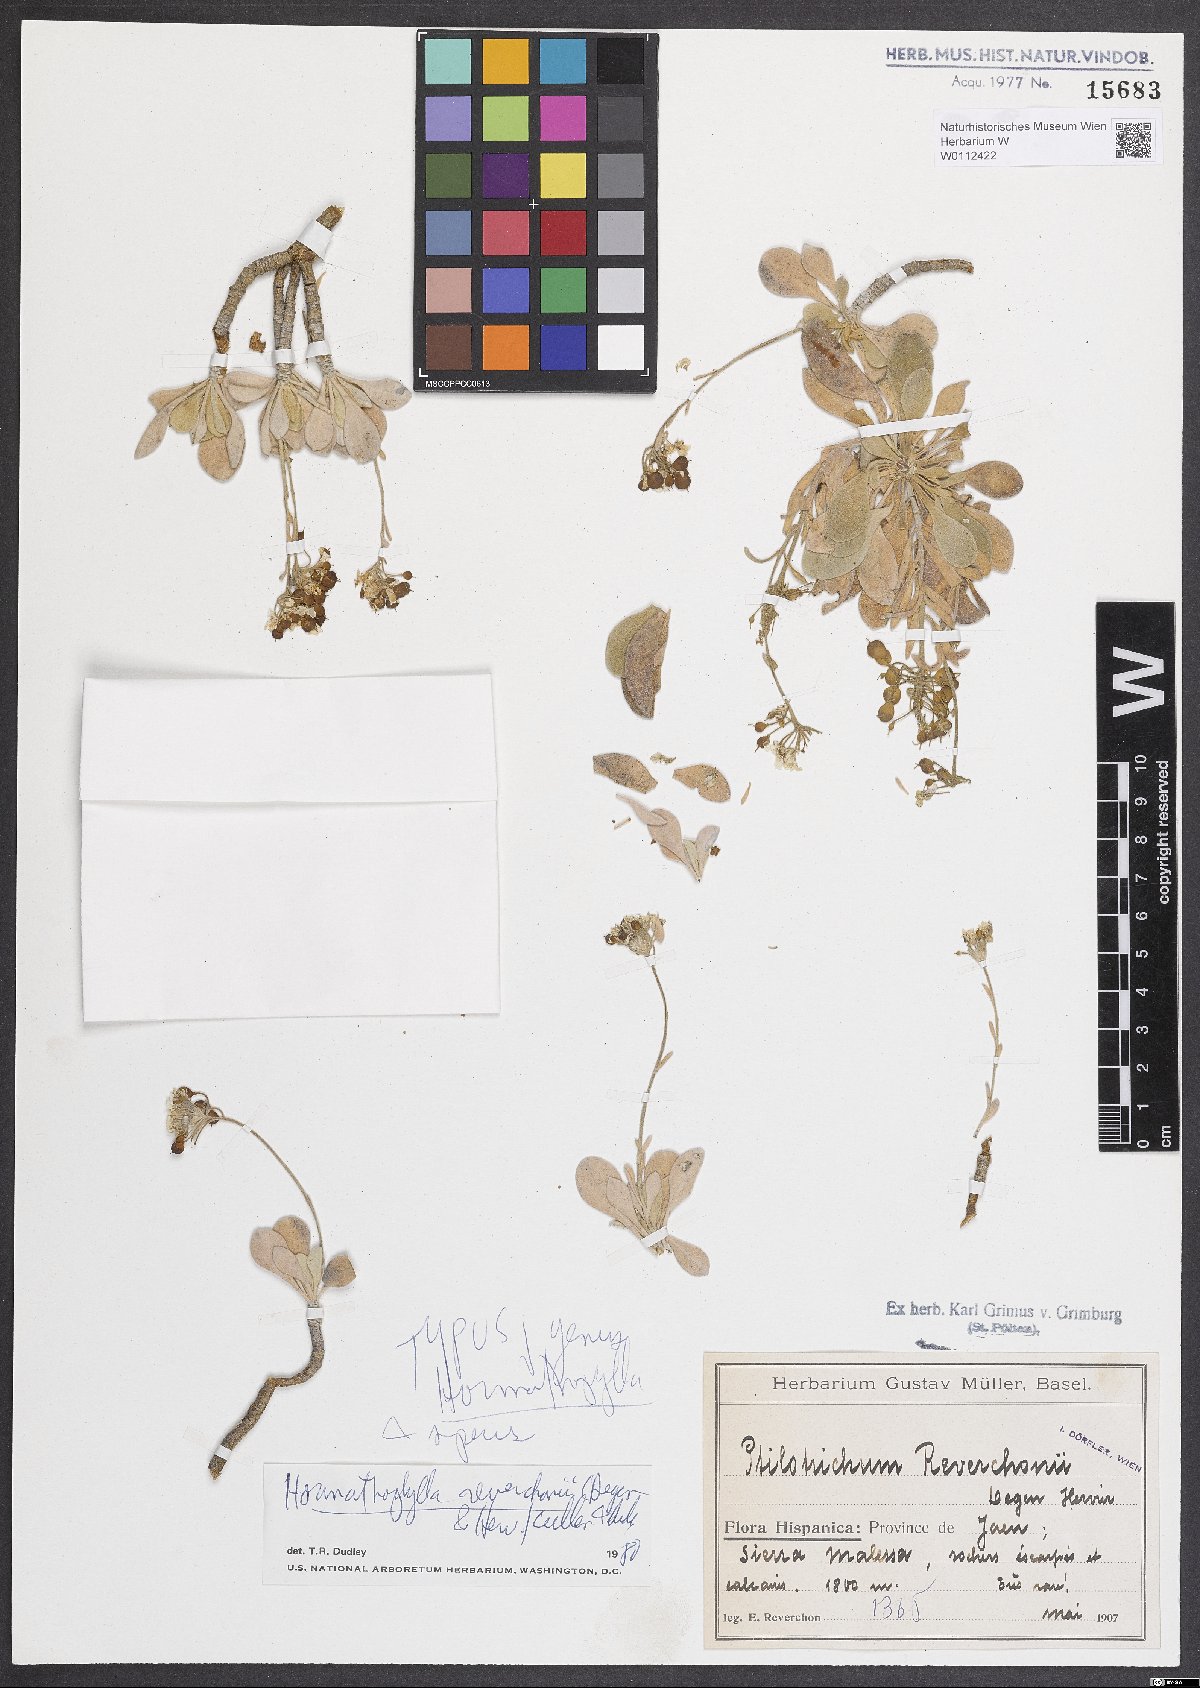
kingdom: Plantae
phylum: Tracheophyta
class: Magnoliopsida
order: Brassicales
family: Brassicaceae
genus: Hormathophylla
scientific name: Hormathophylla reverchonii
